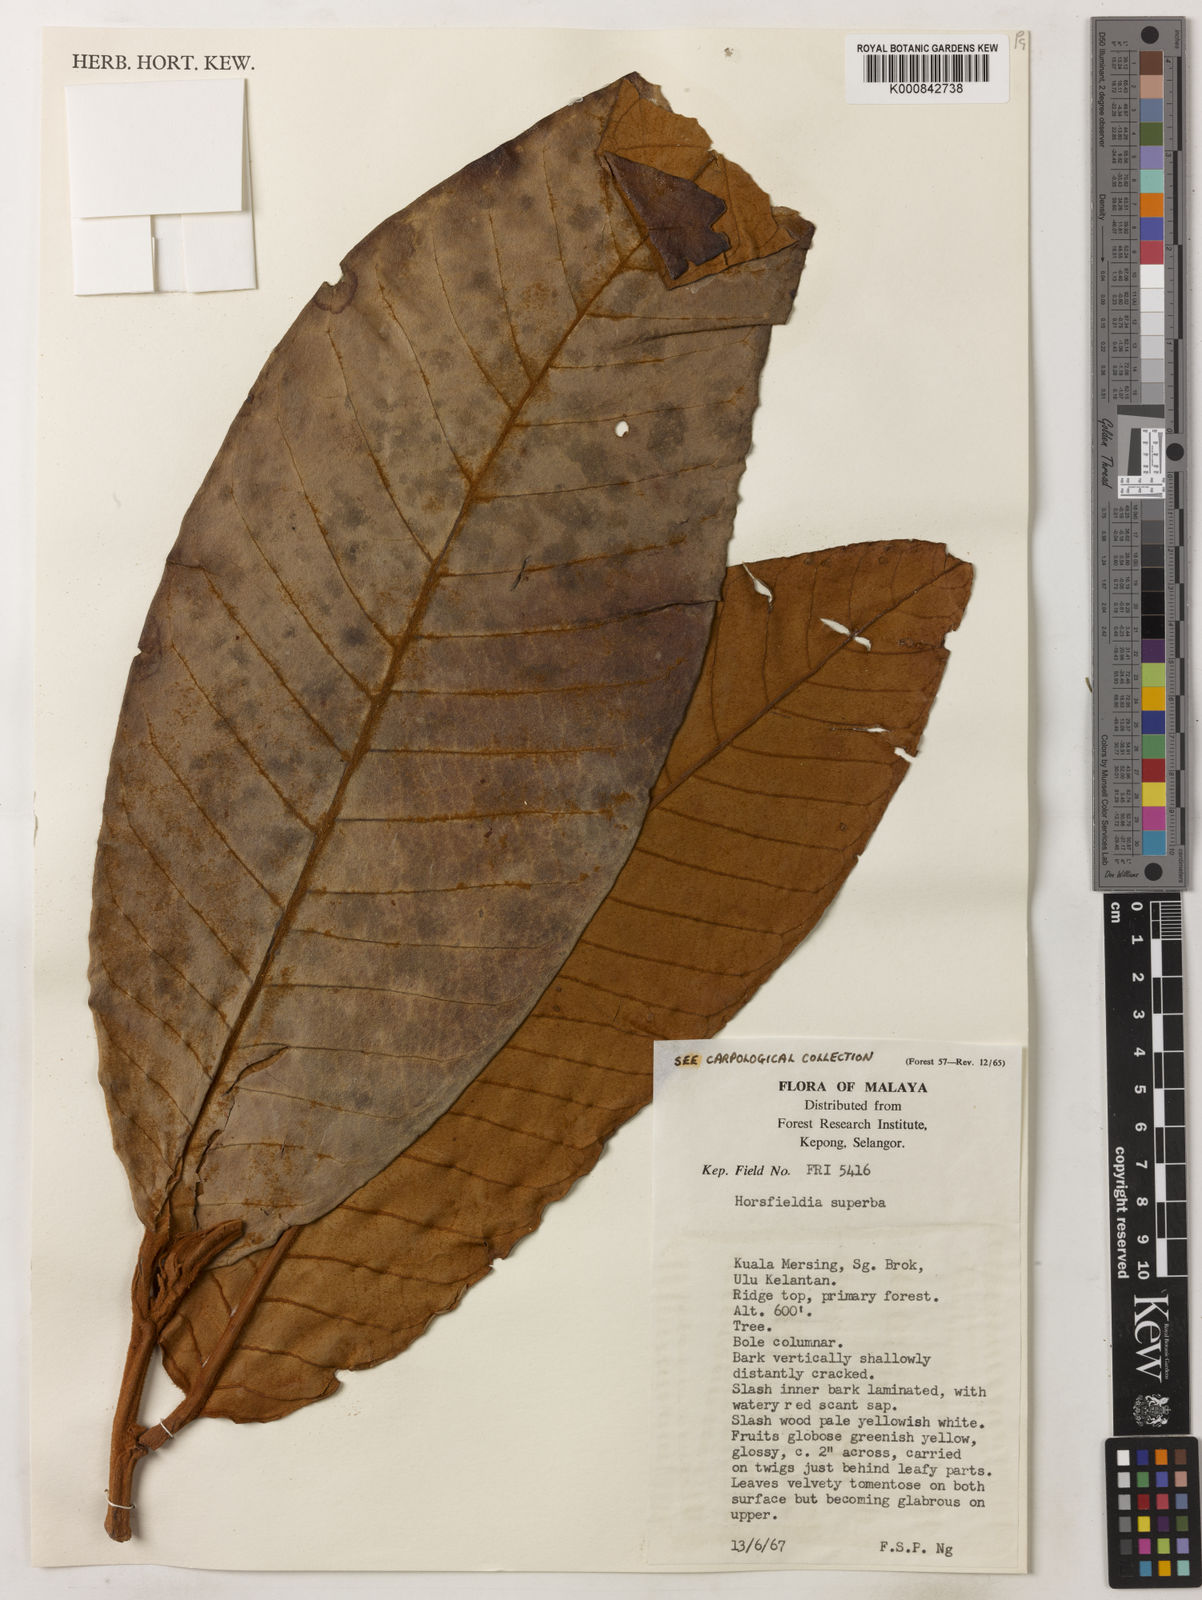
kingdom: Plantae
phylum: Tracheophyta
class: Magnoliopsida
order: Magnoliales
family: Myristicaceae
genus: Horsfieldia
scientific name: Horsfieldia superba
